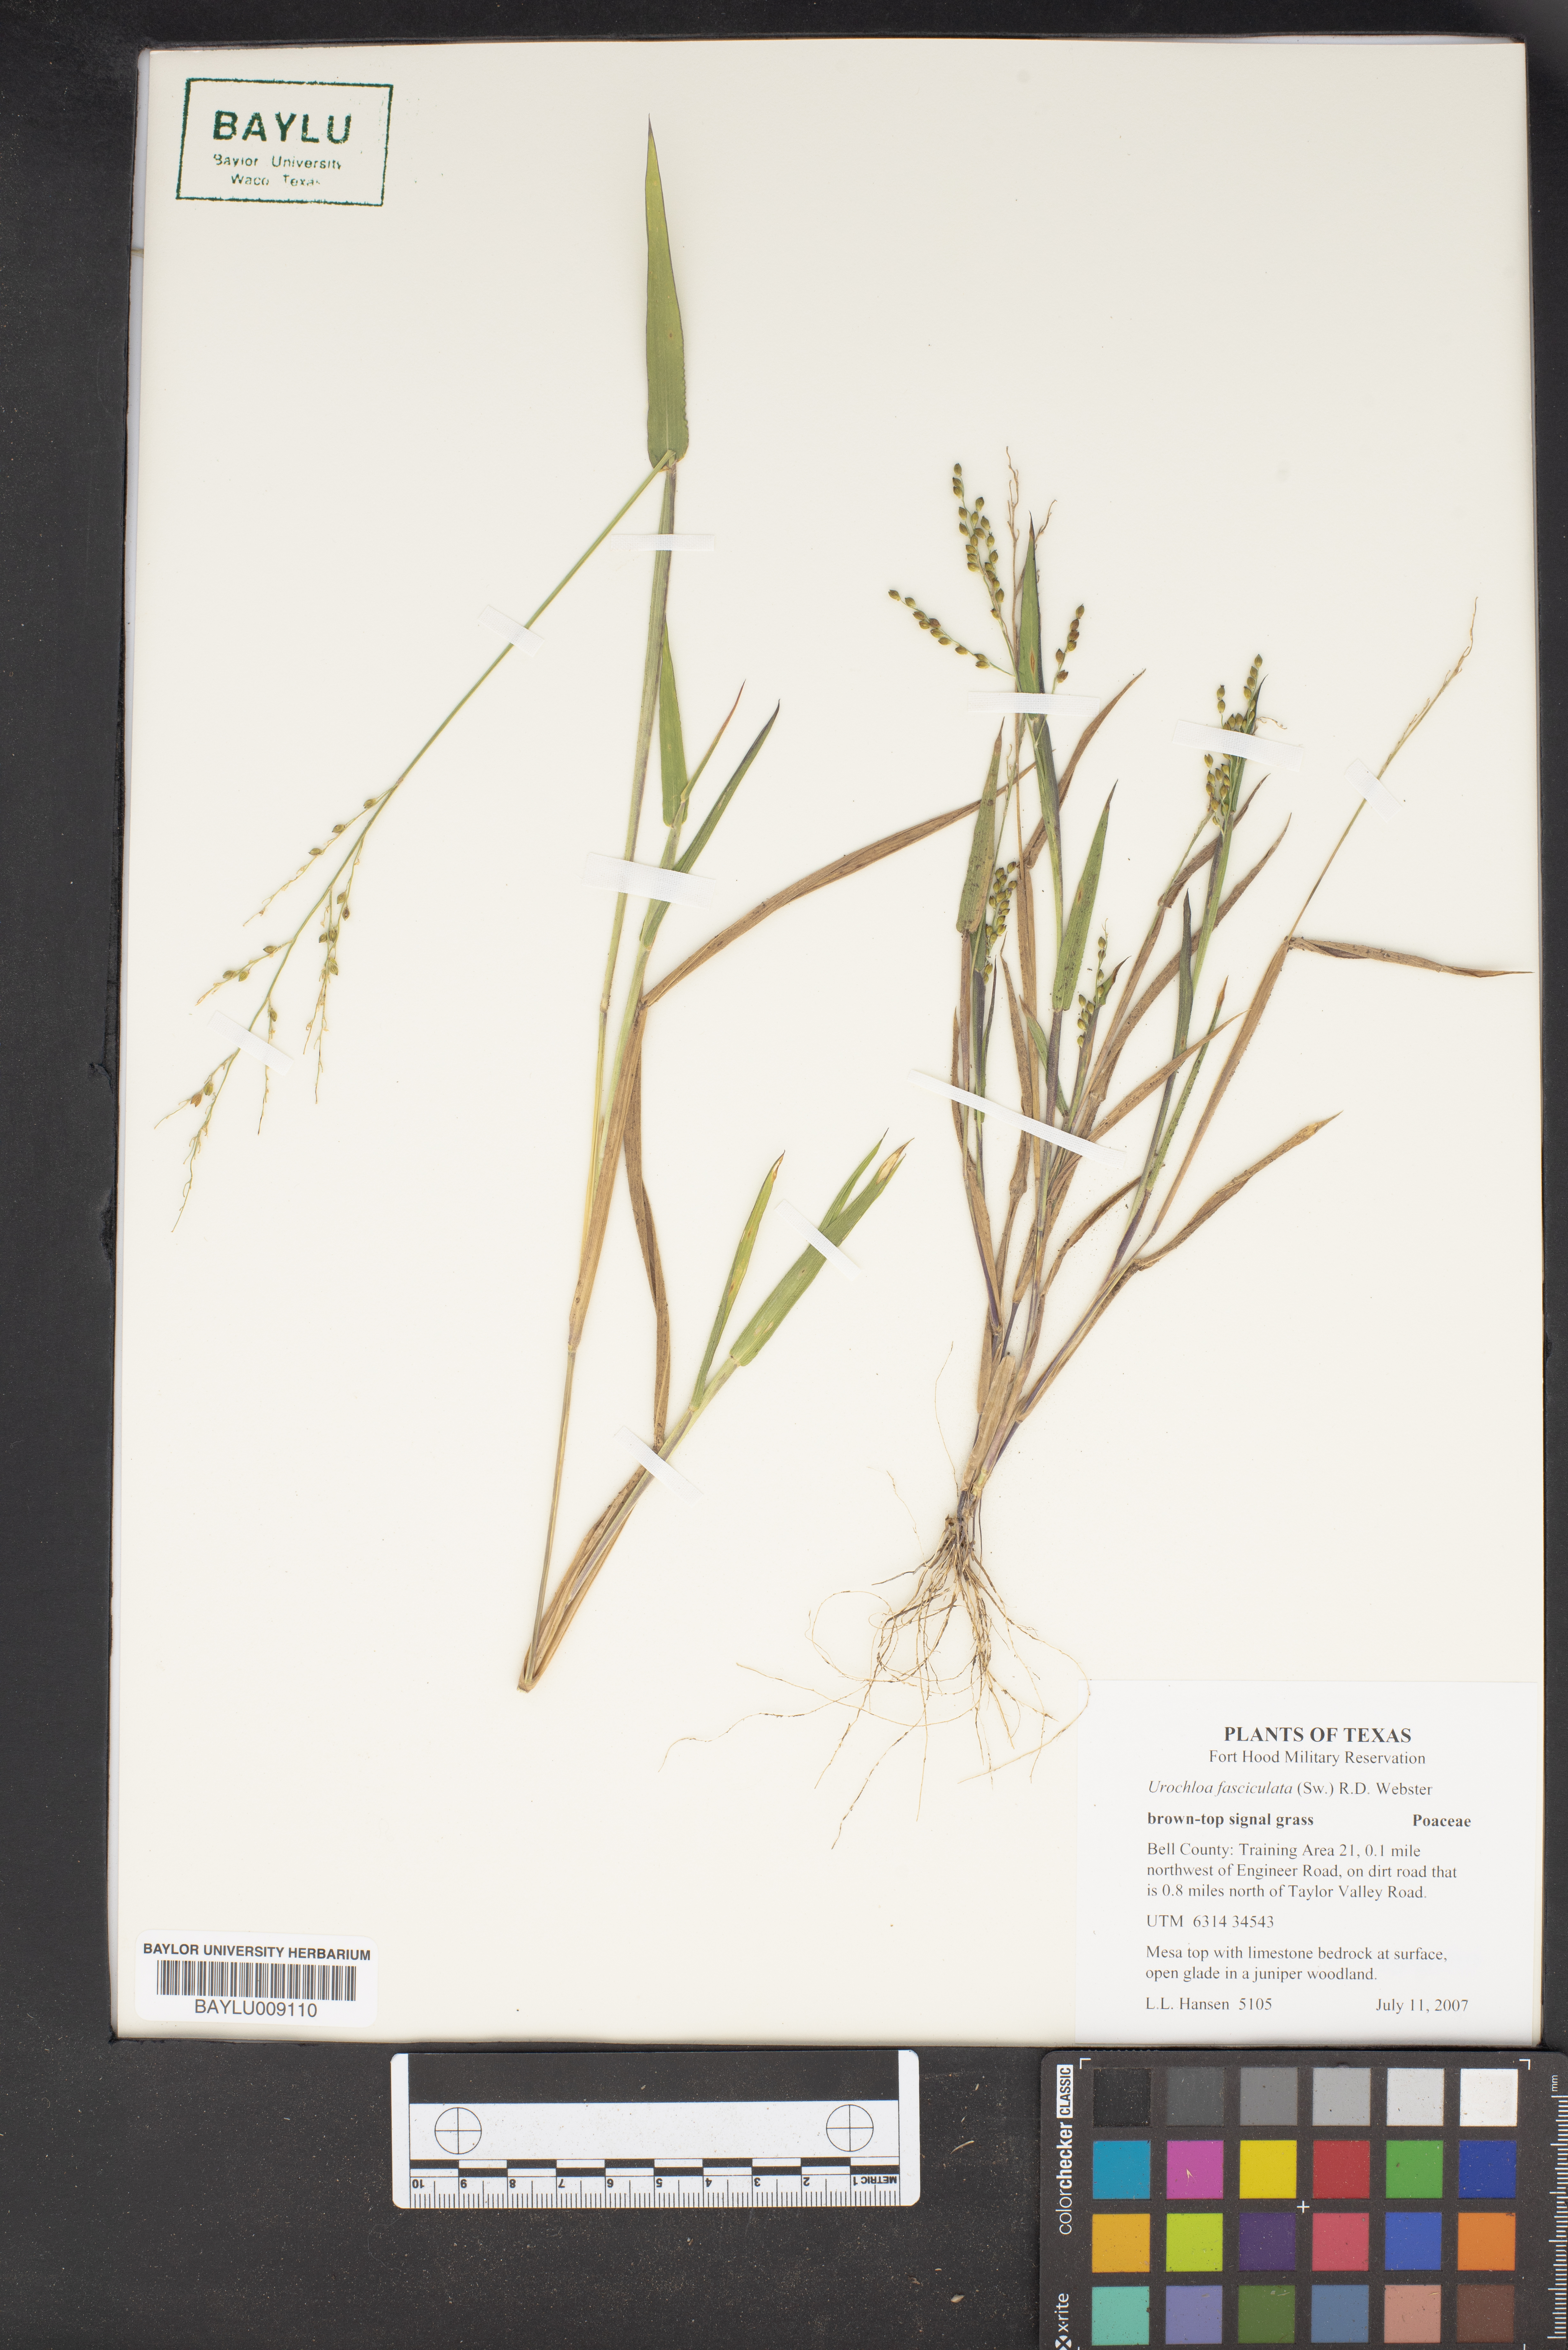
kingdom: Plantae
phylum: Tracheophyta
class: Liliopsida
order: Poales
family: Poaceae
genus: Urochloa
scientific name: Urochloa fusca
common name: Browntop signal grass
